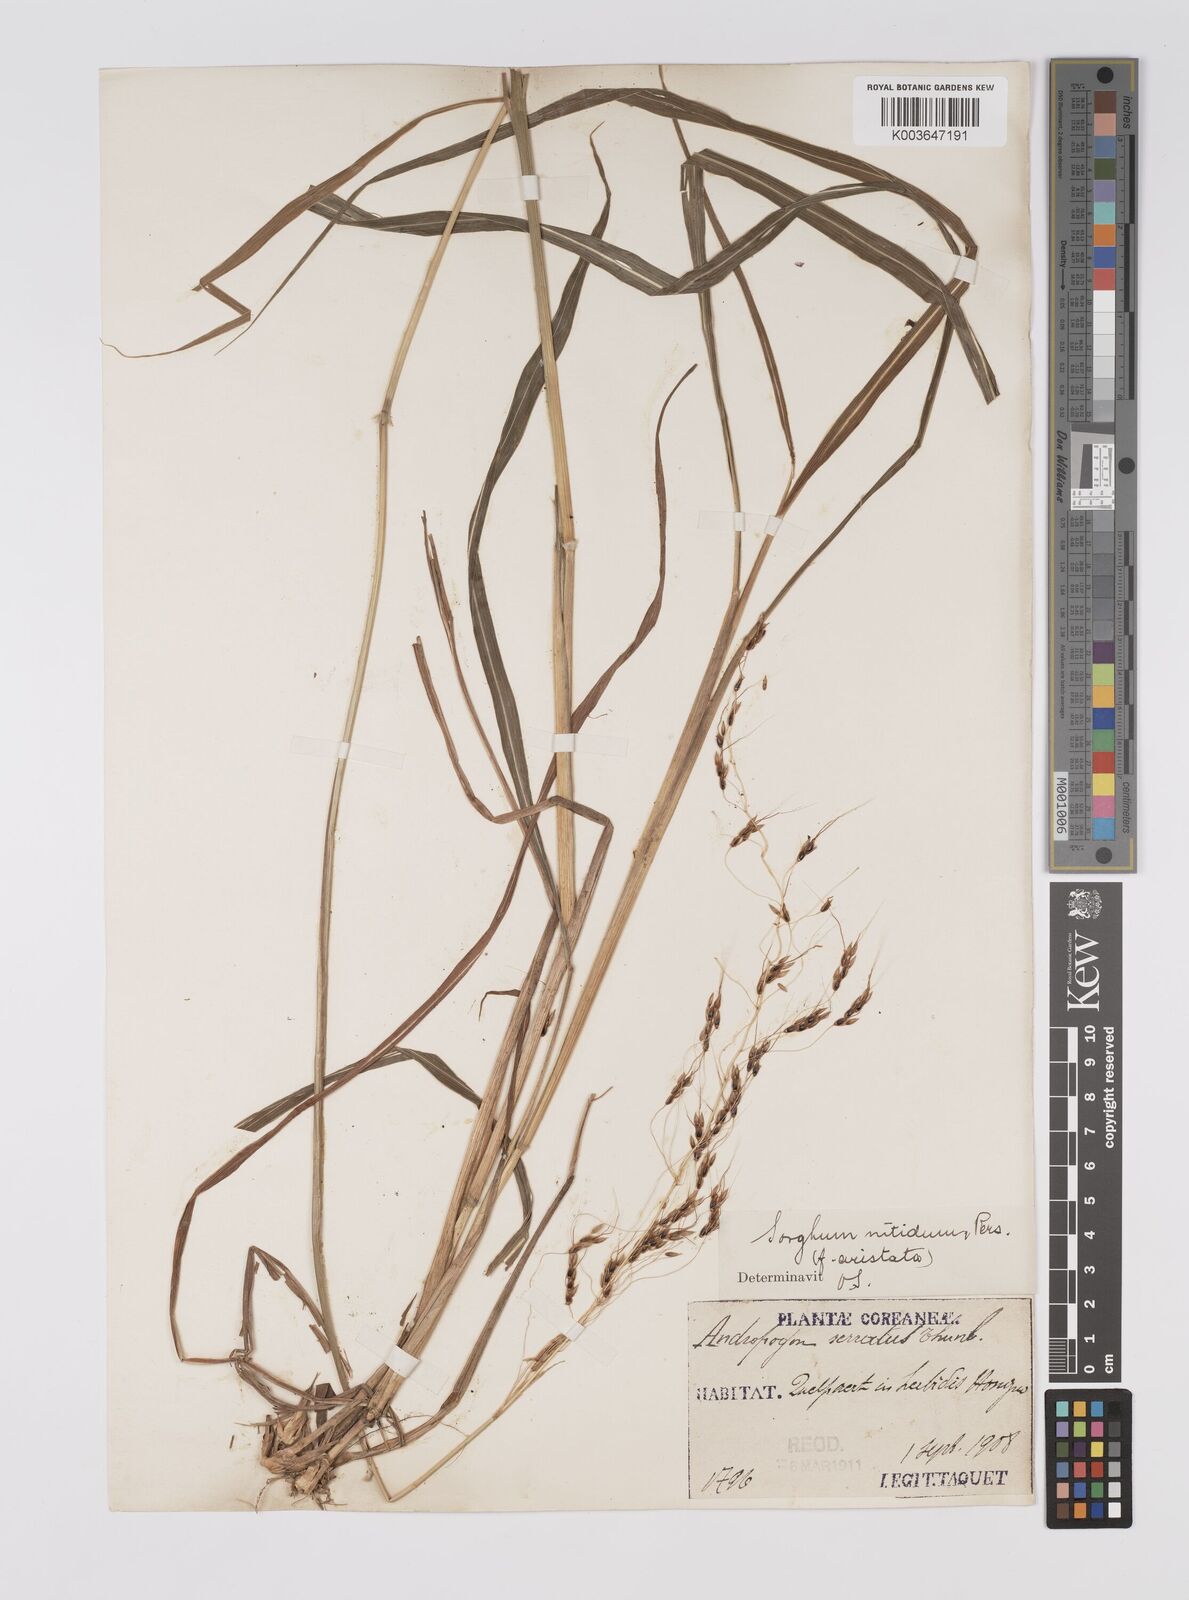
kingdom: Plantae
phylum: Tracheophyta
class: Liliopsida
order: Poales
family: Poaceae
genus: Sorghum
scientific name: Sorghum nitidum
